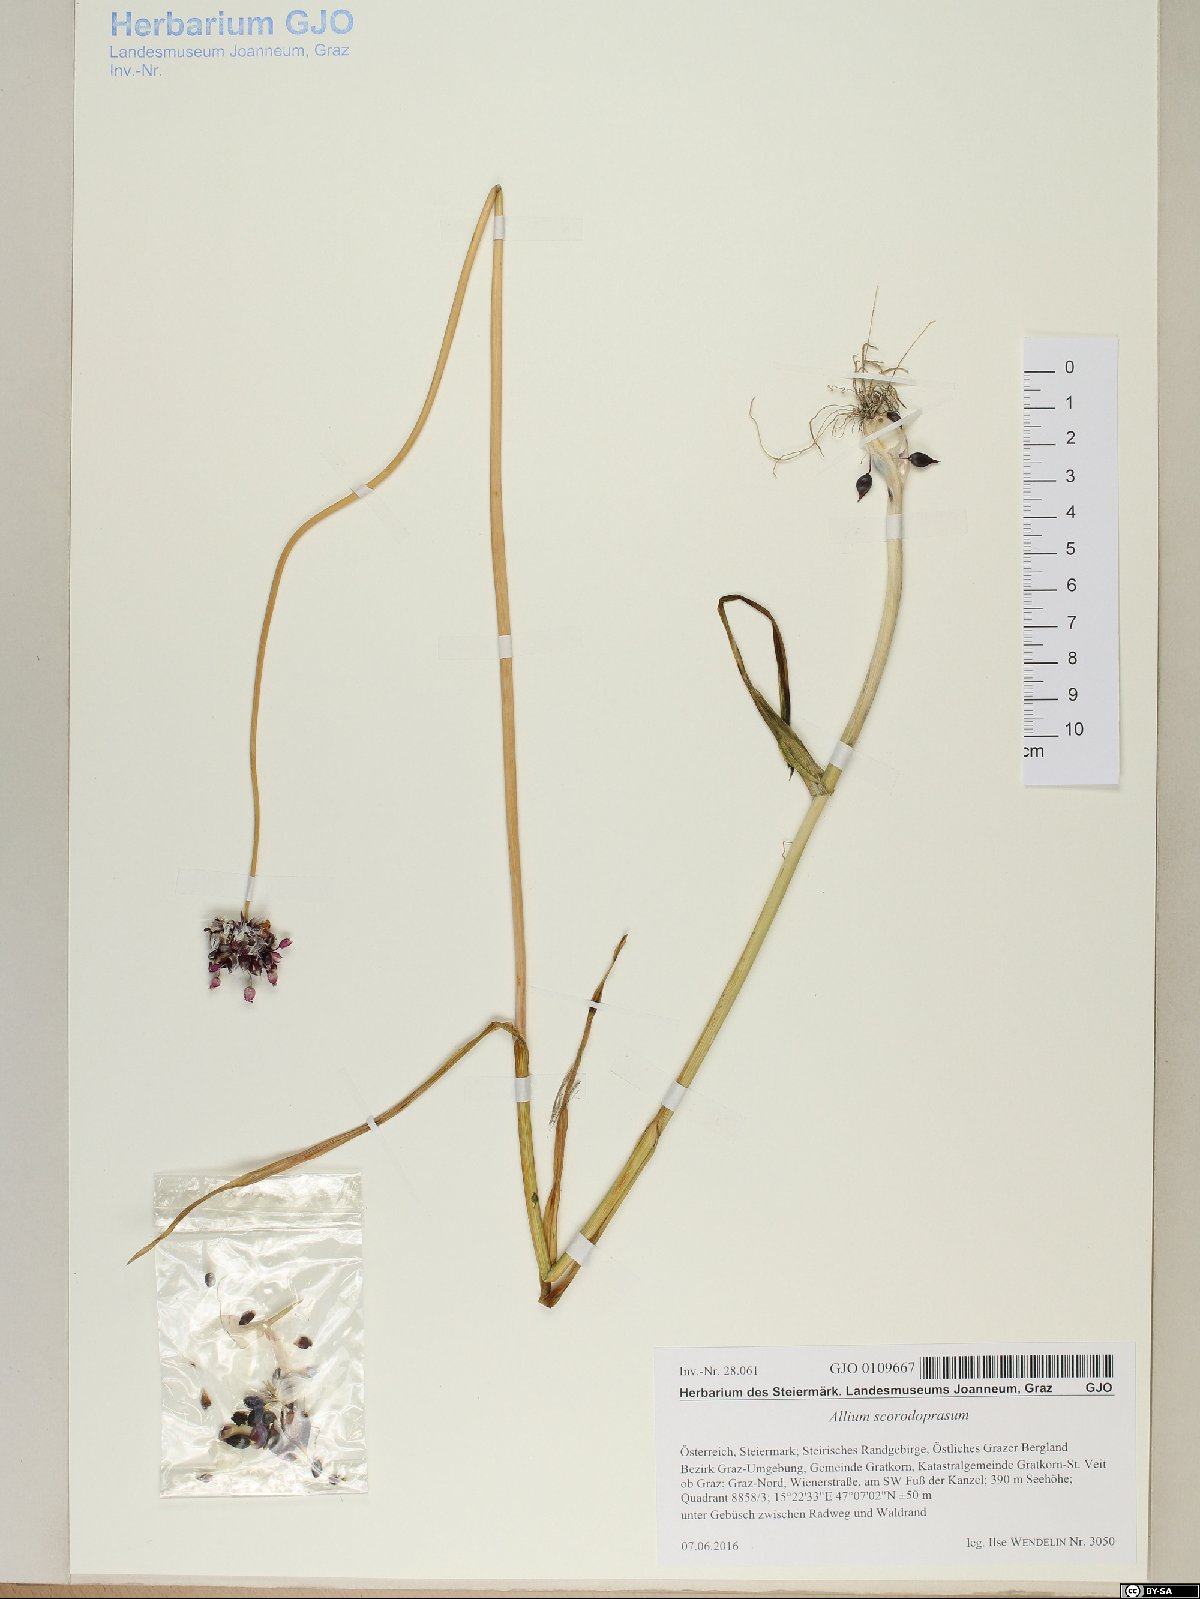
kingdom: Plantae
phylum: Tracheophyta
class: Liliopsida
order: Asparagales
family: Amaryllidaceae
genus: Allium
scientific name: Allium scorodoprasum
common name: Sand leek
